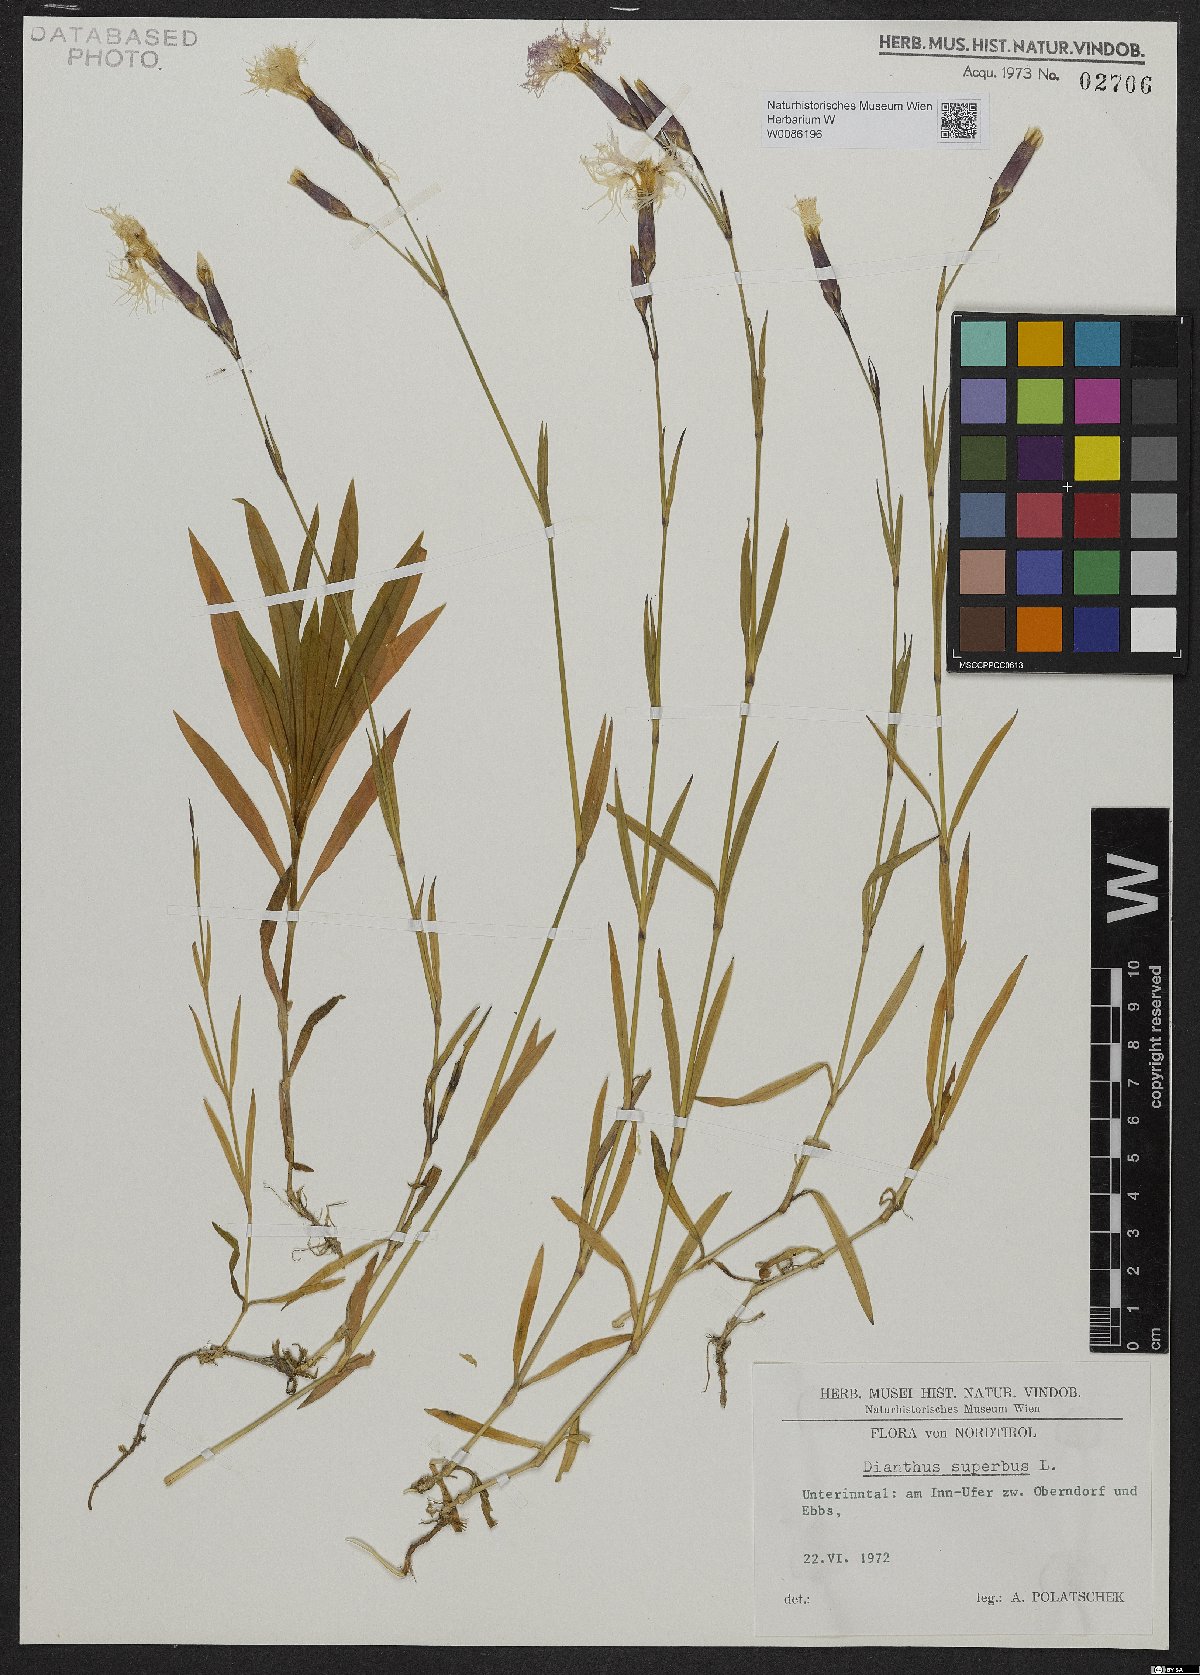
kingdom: Plantae
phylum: Tracheophyta
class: Magnoliopsida
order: Caryophyllales
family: Caryophyllaceae
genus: Dianthus
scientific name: Dianthus superbus
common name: Fringed pink
